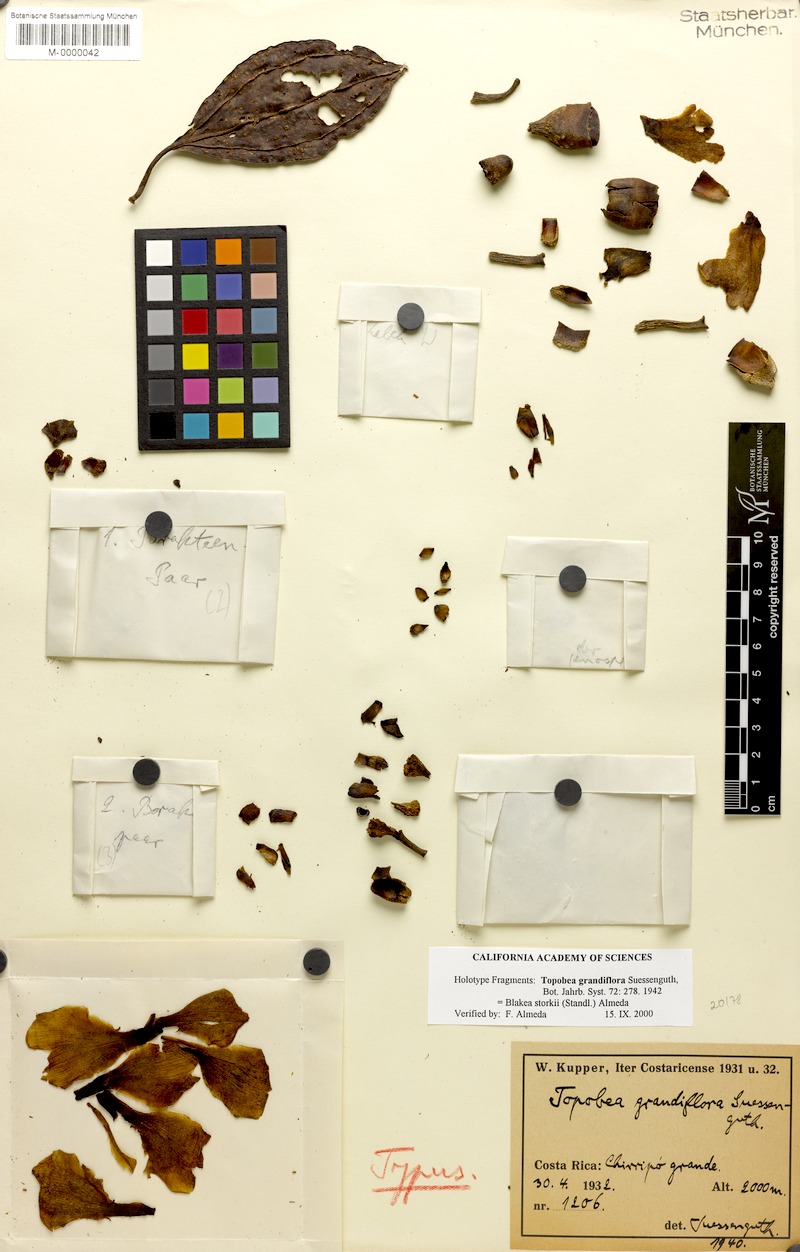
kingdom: Plantae
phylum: Tracheophyta
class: Magnoliopsida
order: Myrtales
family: Melastomataceae
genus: Blakea
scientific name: Blakea storkii
